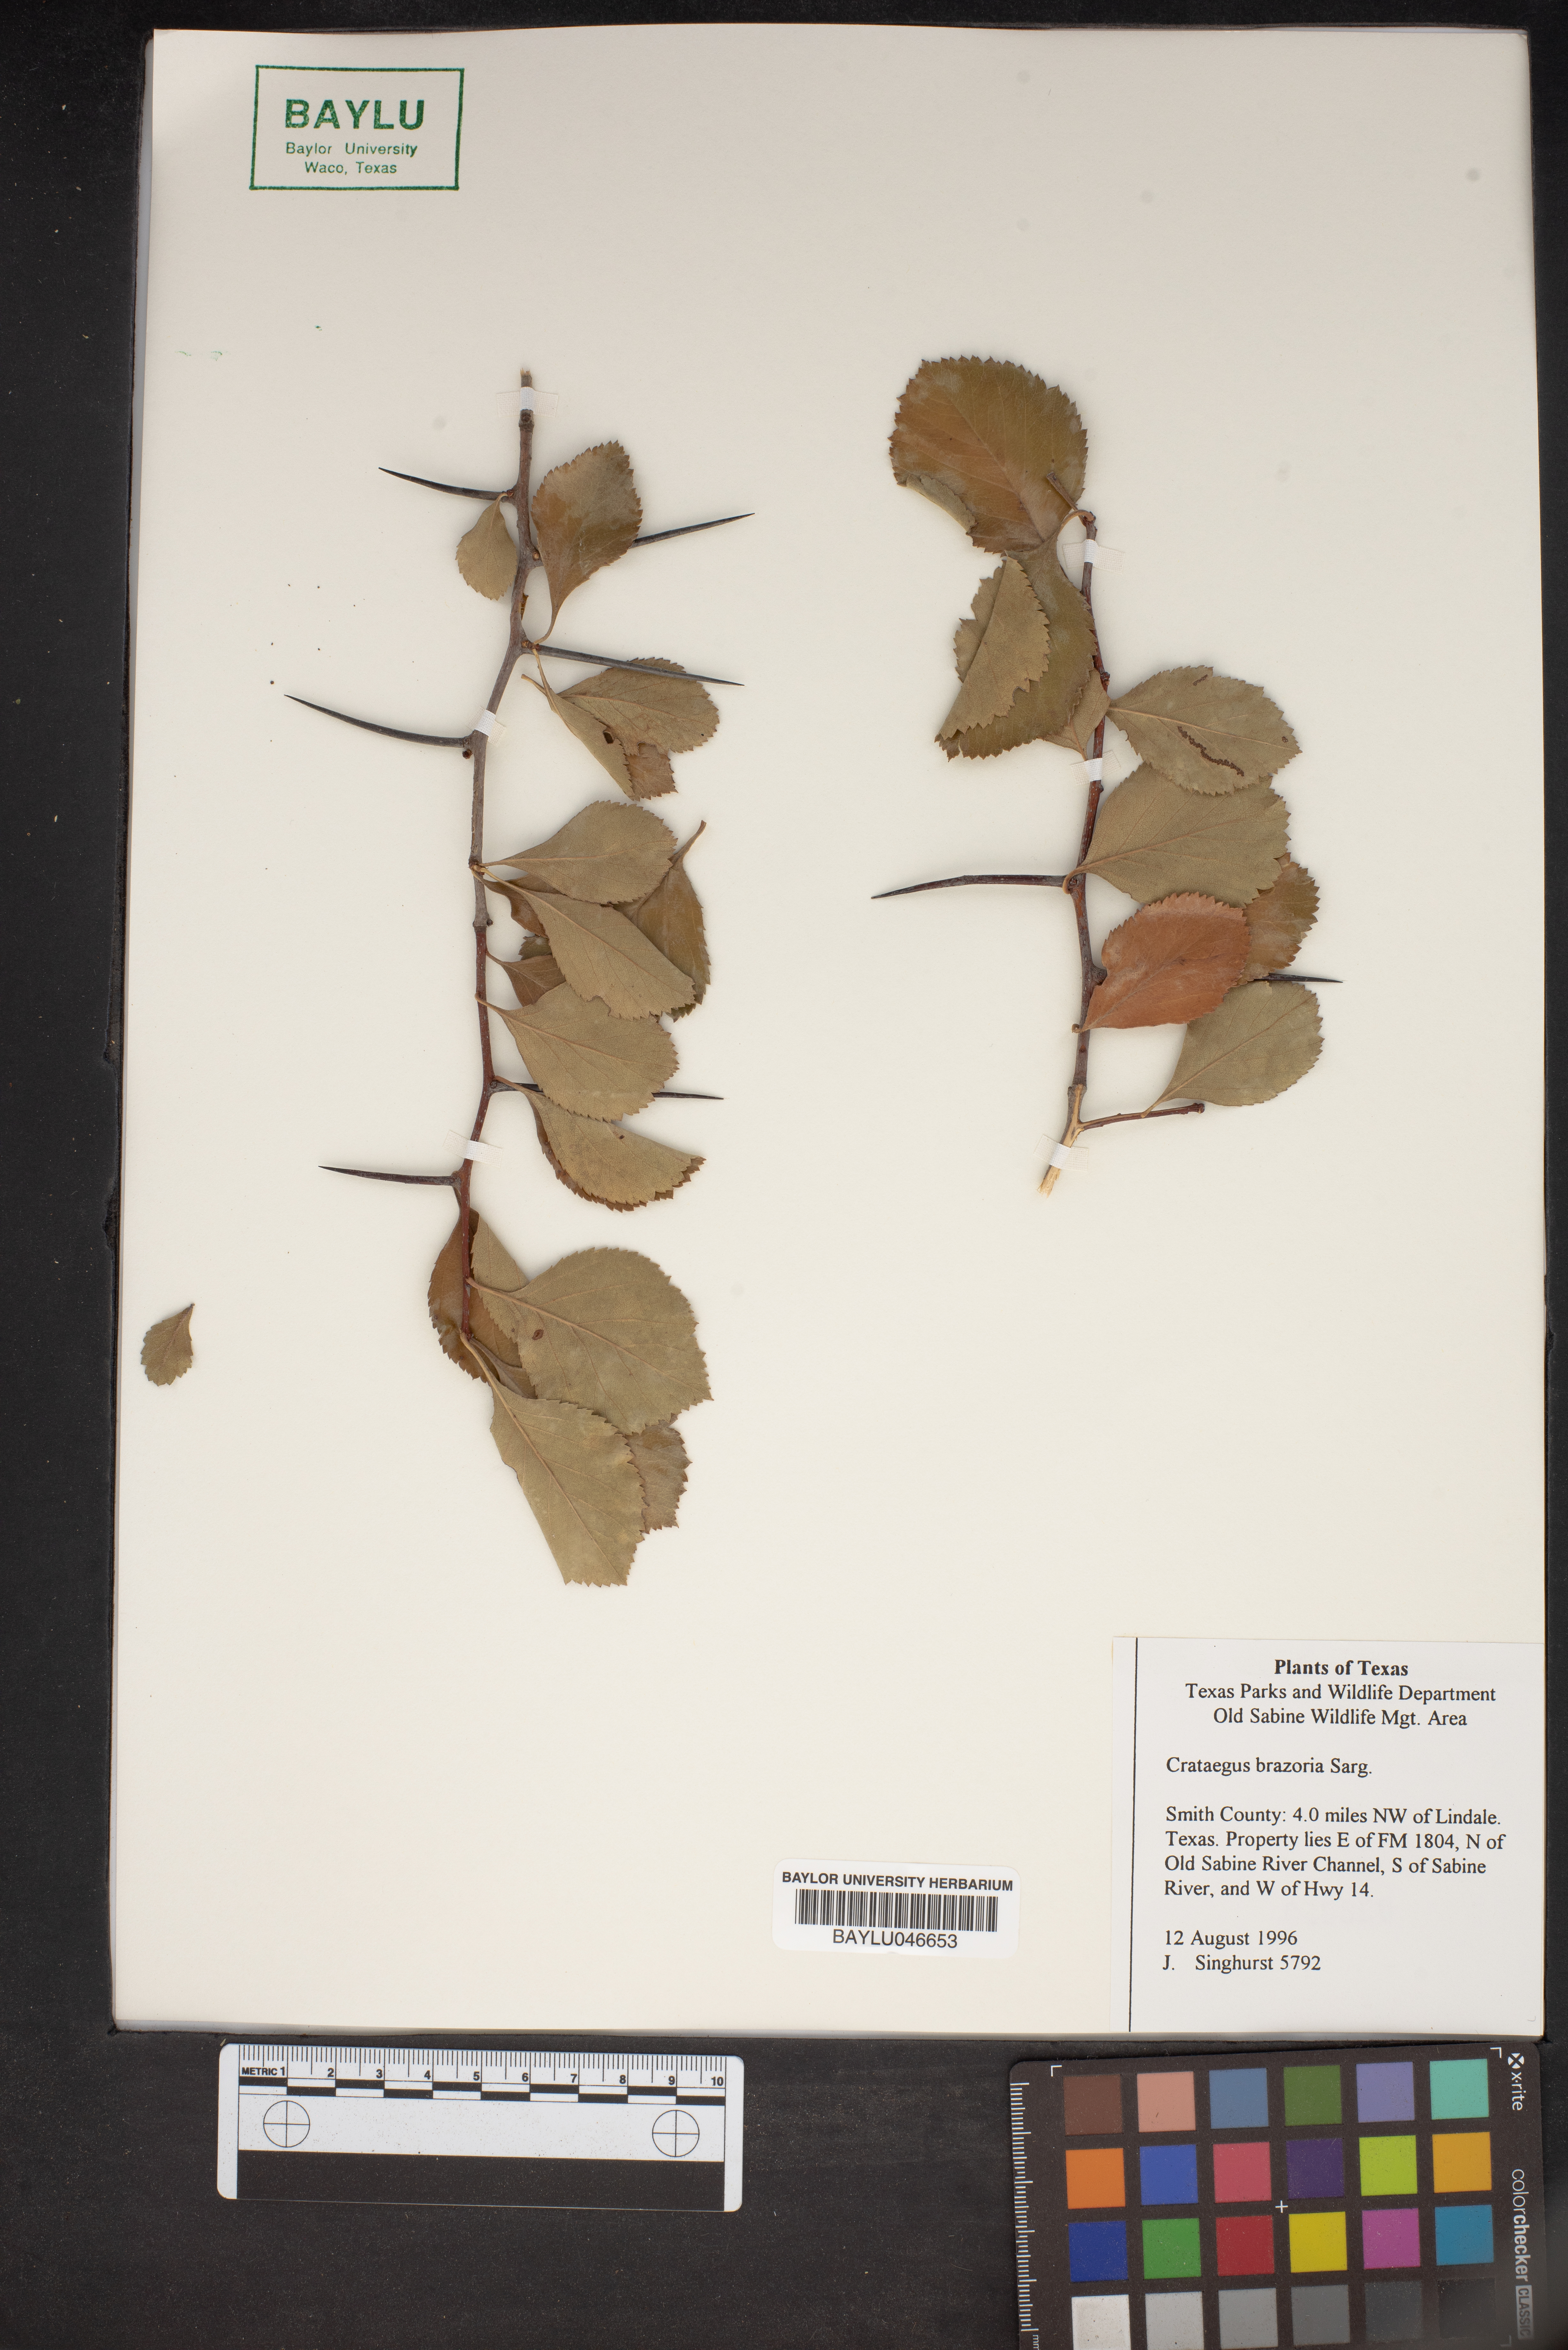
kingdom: Plantae
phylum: Tracheophyta
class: Magnoliopsida
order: Rosales
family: Rosaceae
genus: Crataegus
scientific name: Crataegus brazoria
